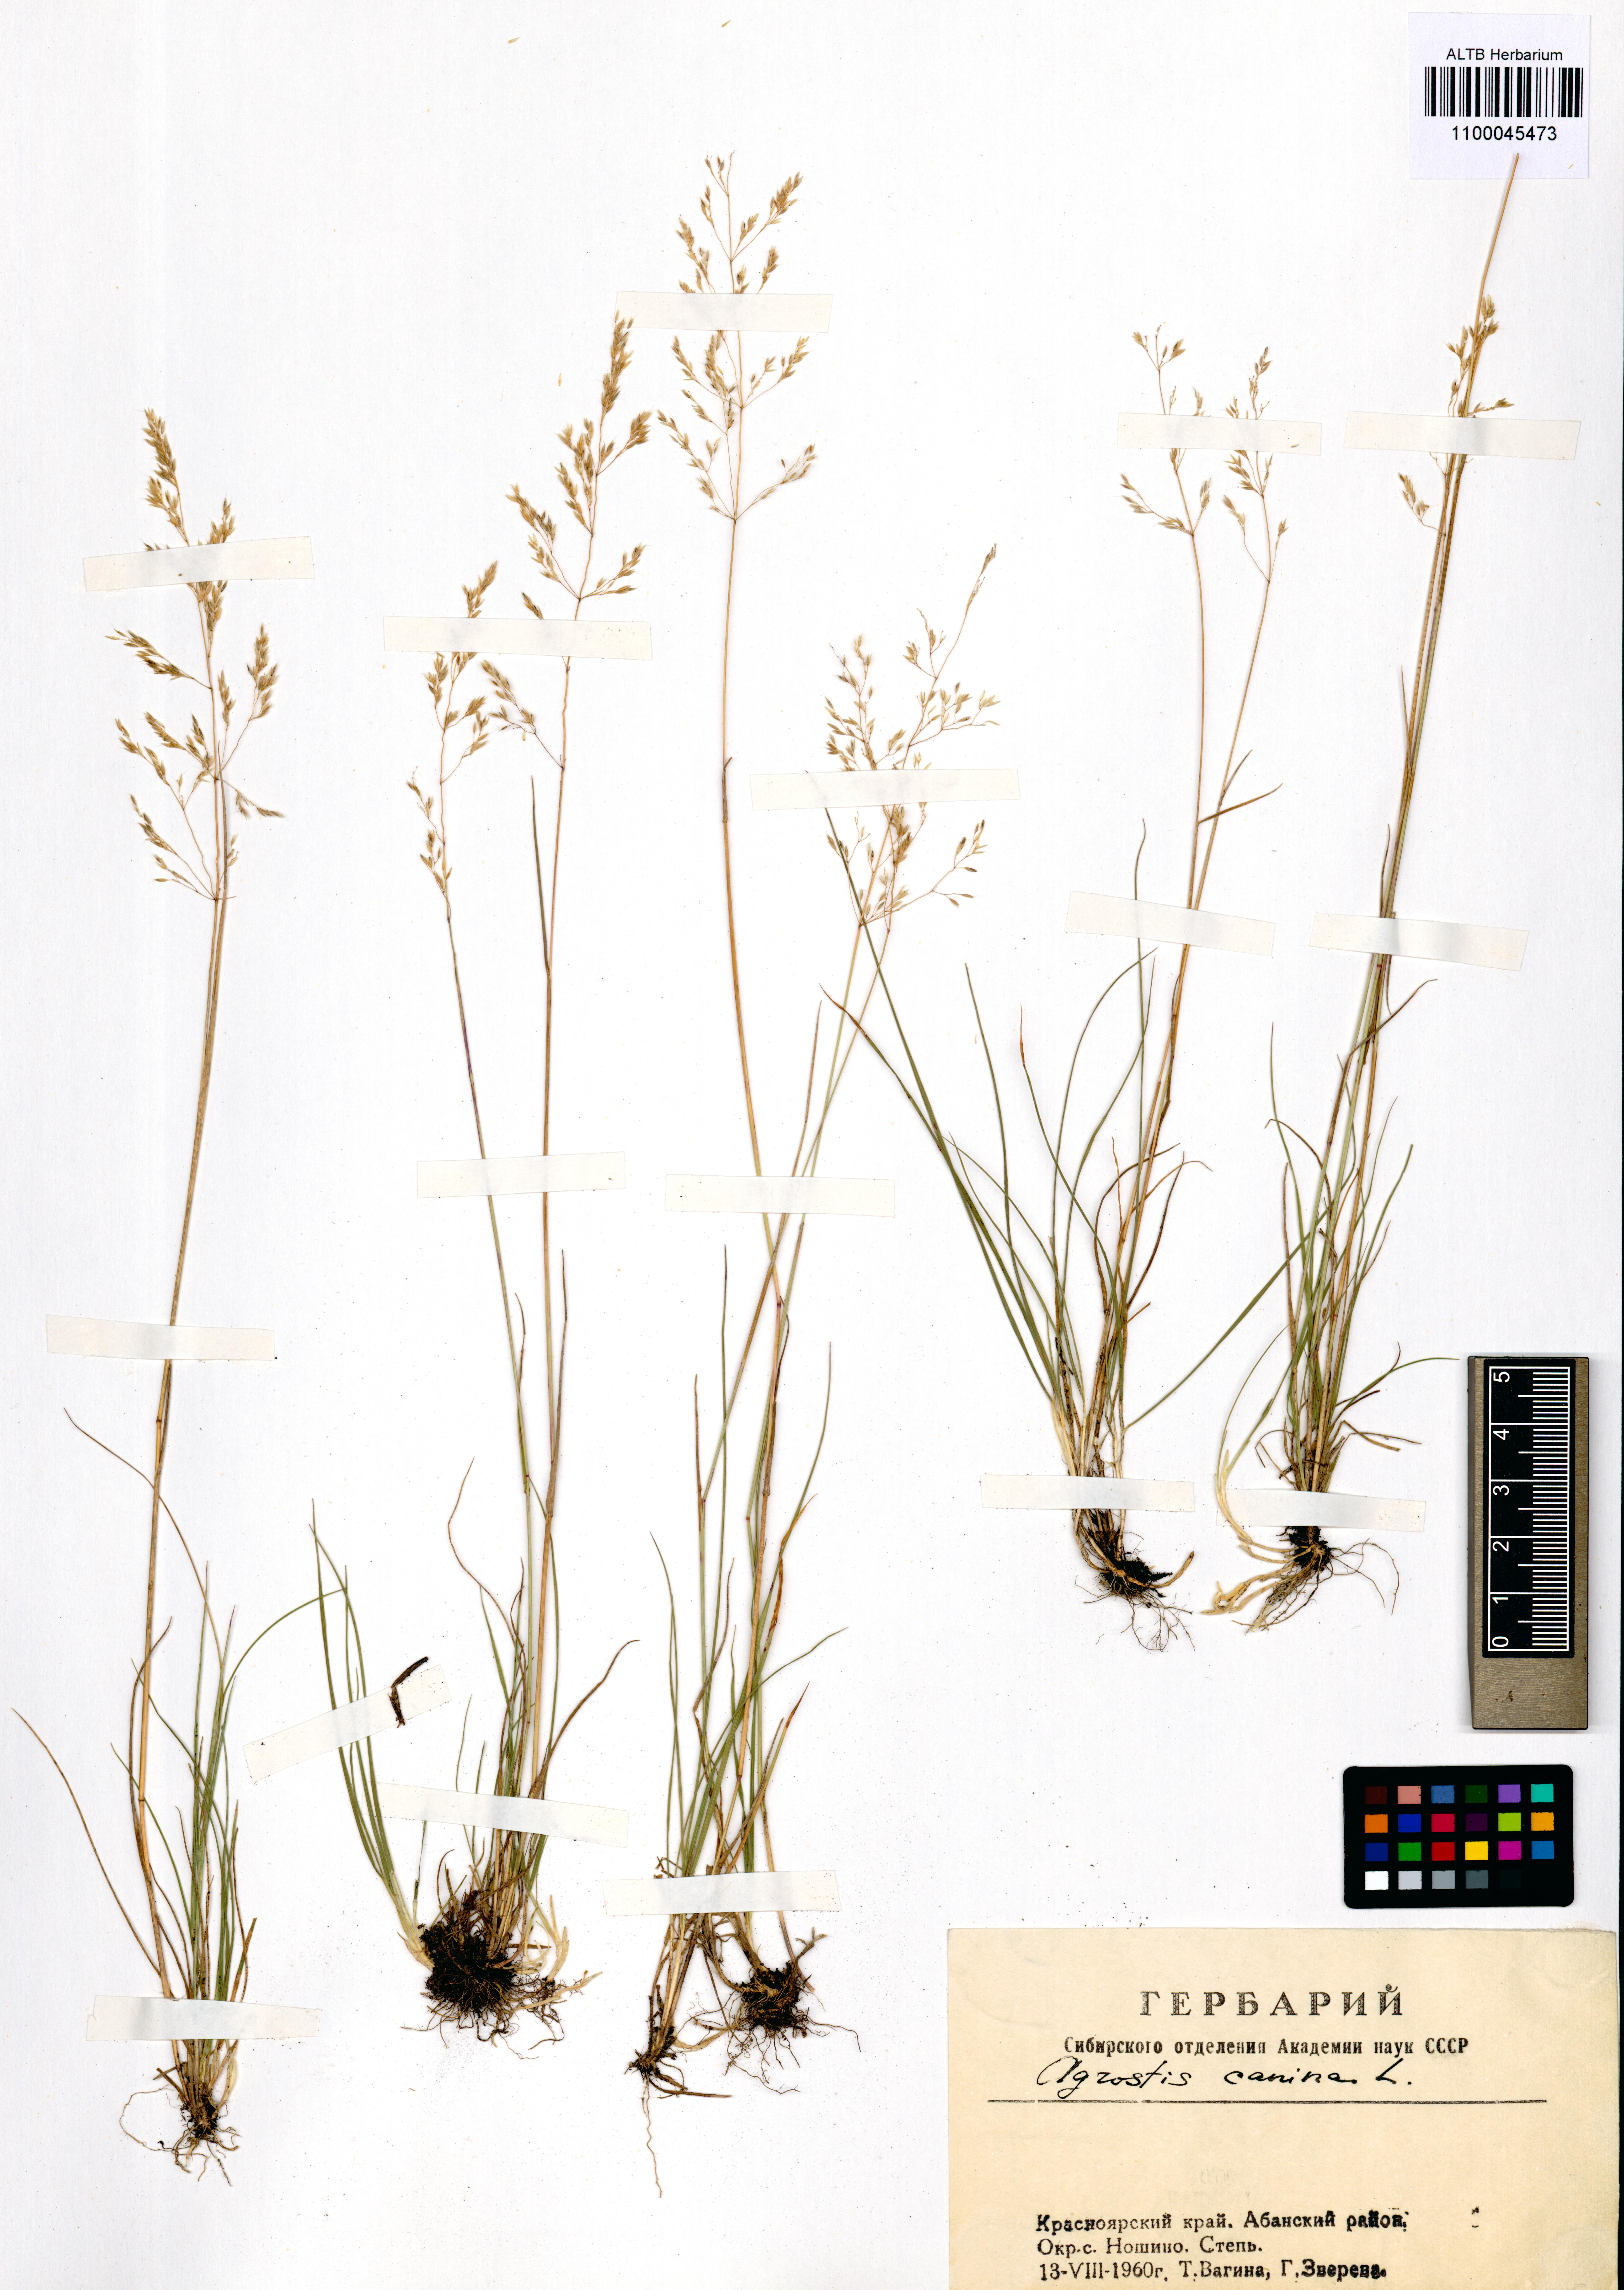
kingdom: Plantae
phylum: Tracheophyta
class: Liliopsida
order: Poales
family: Poaceae
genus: Agrostis
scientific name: Agrostis canina
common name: Velvet bent
